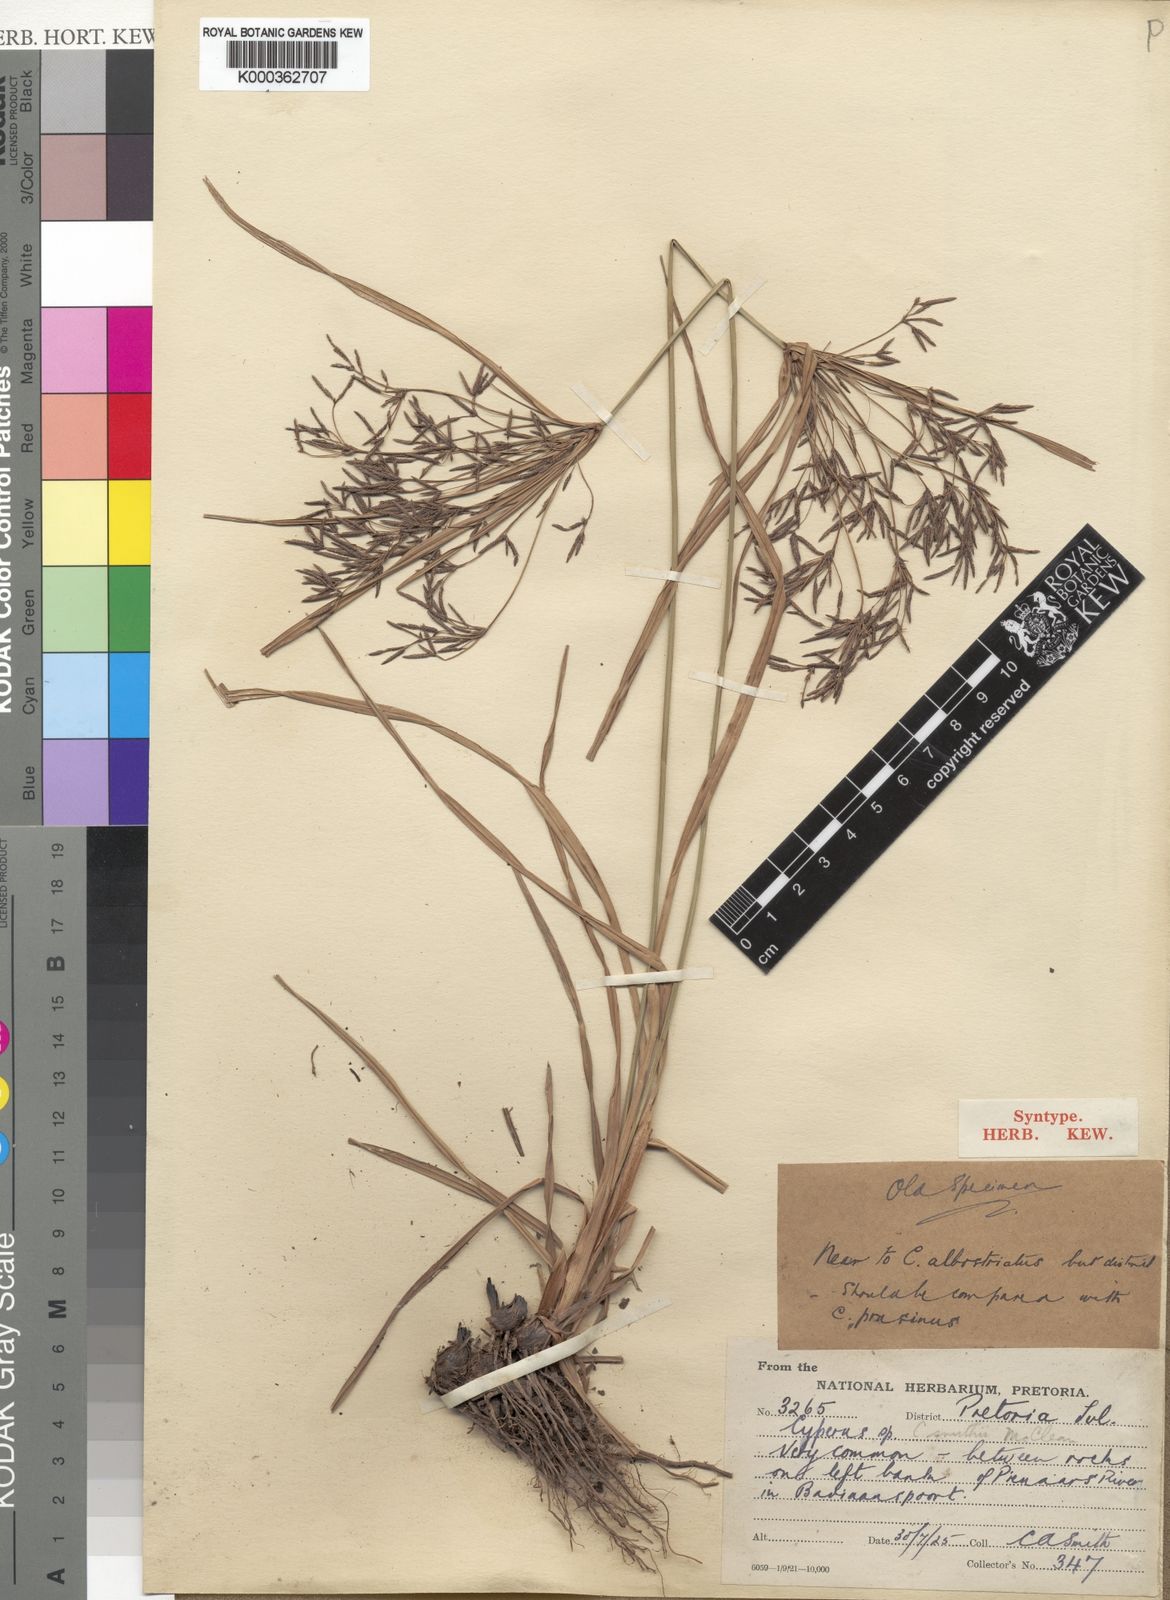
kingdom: Plantae
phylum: Tracheophyta
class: Liliopsida
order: Poales
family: Cyperaceae
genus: Cyperus
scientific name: Cyperus leptocladus
